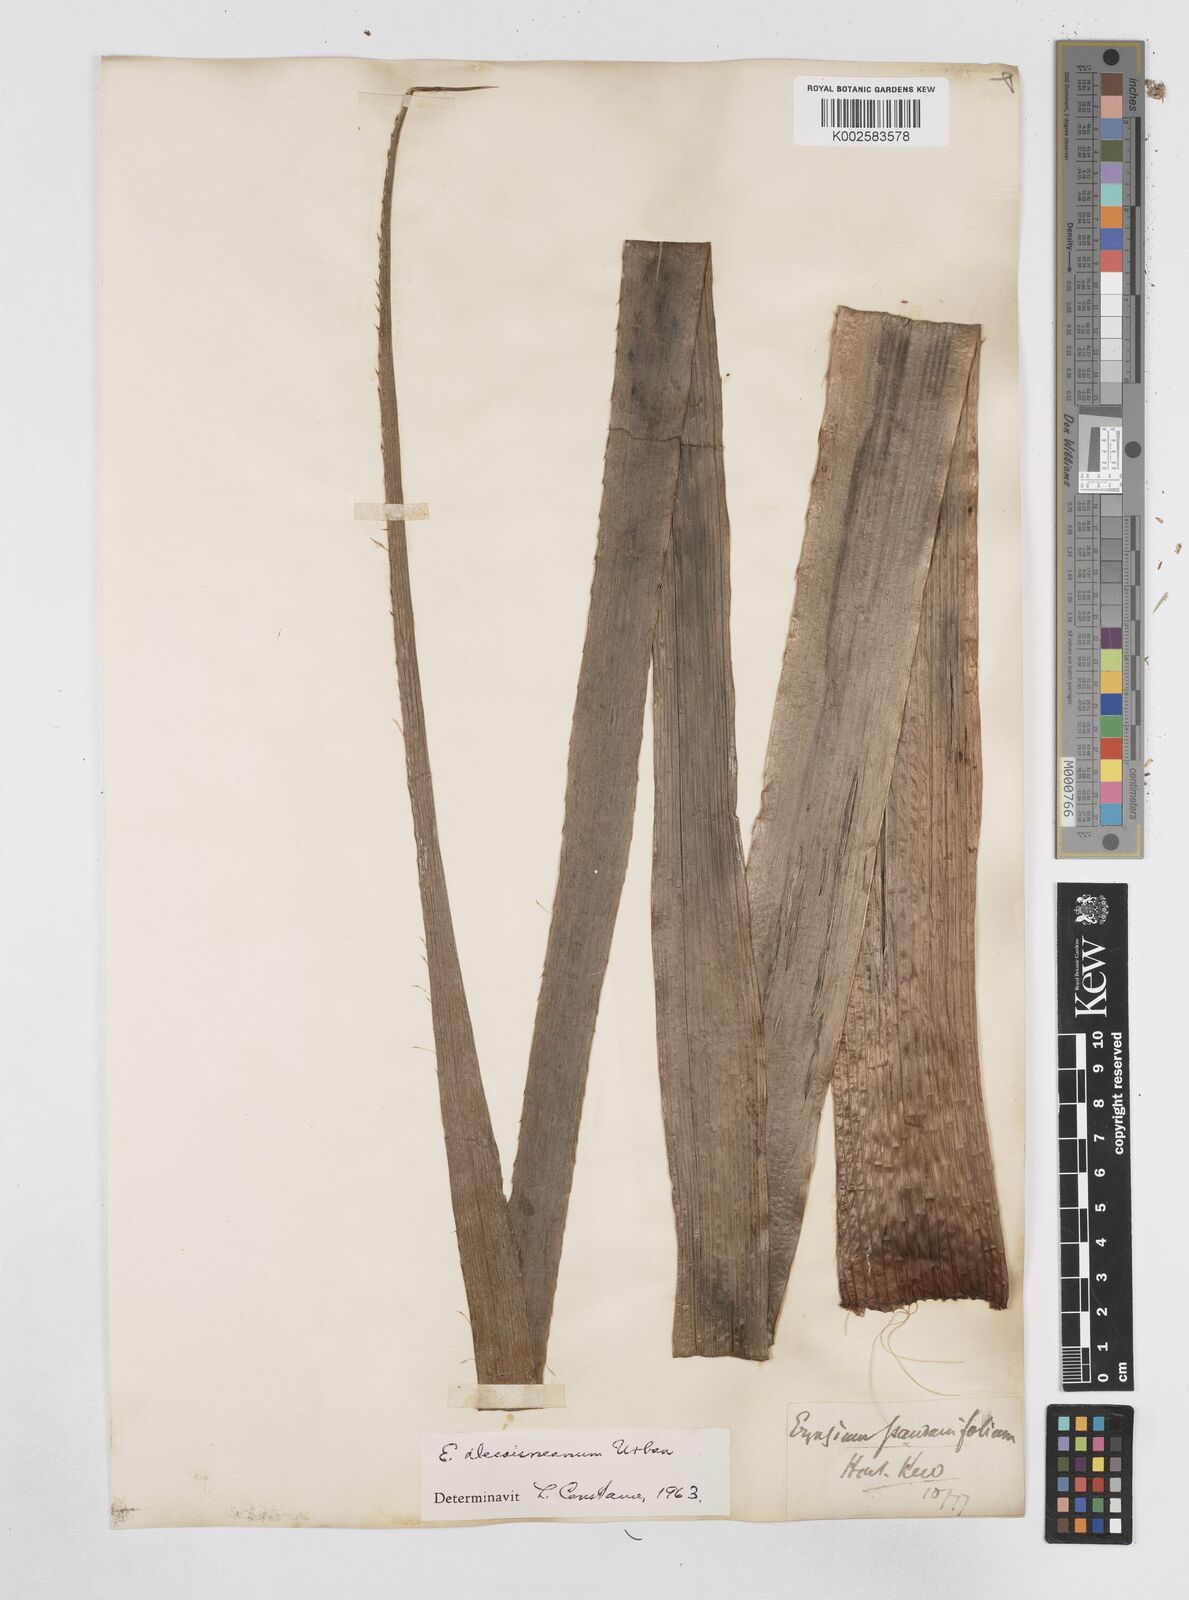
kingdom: Plantae
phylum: Tracheophyta
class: Magnoliopsida
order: Apiales
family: Apiaceae
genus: Eryngium
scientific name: Eryngium pandanifolium
